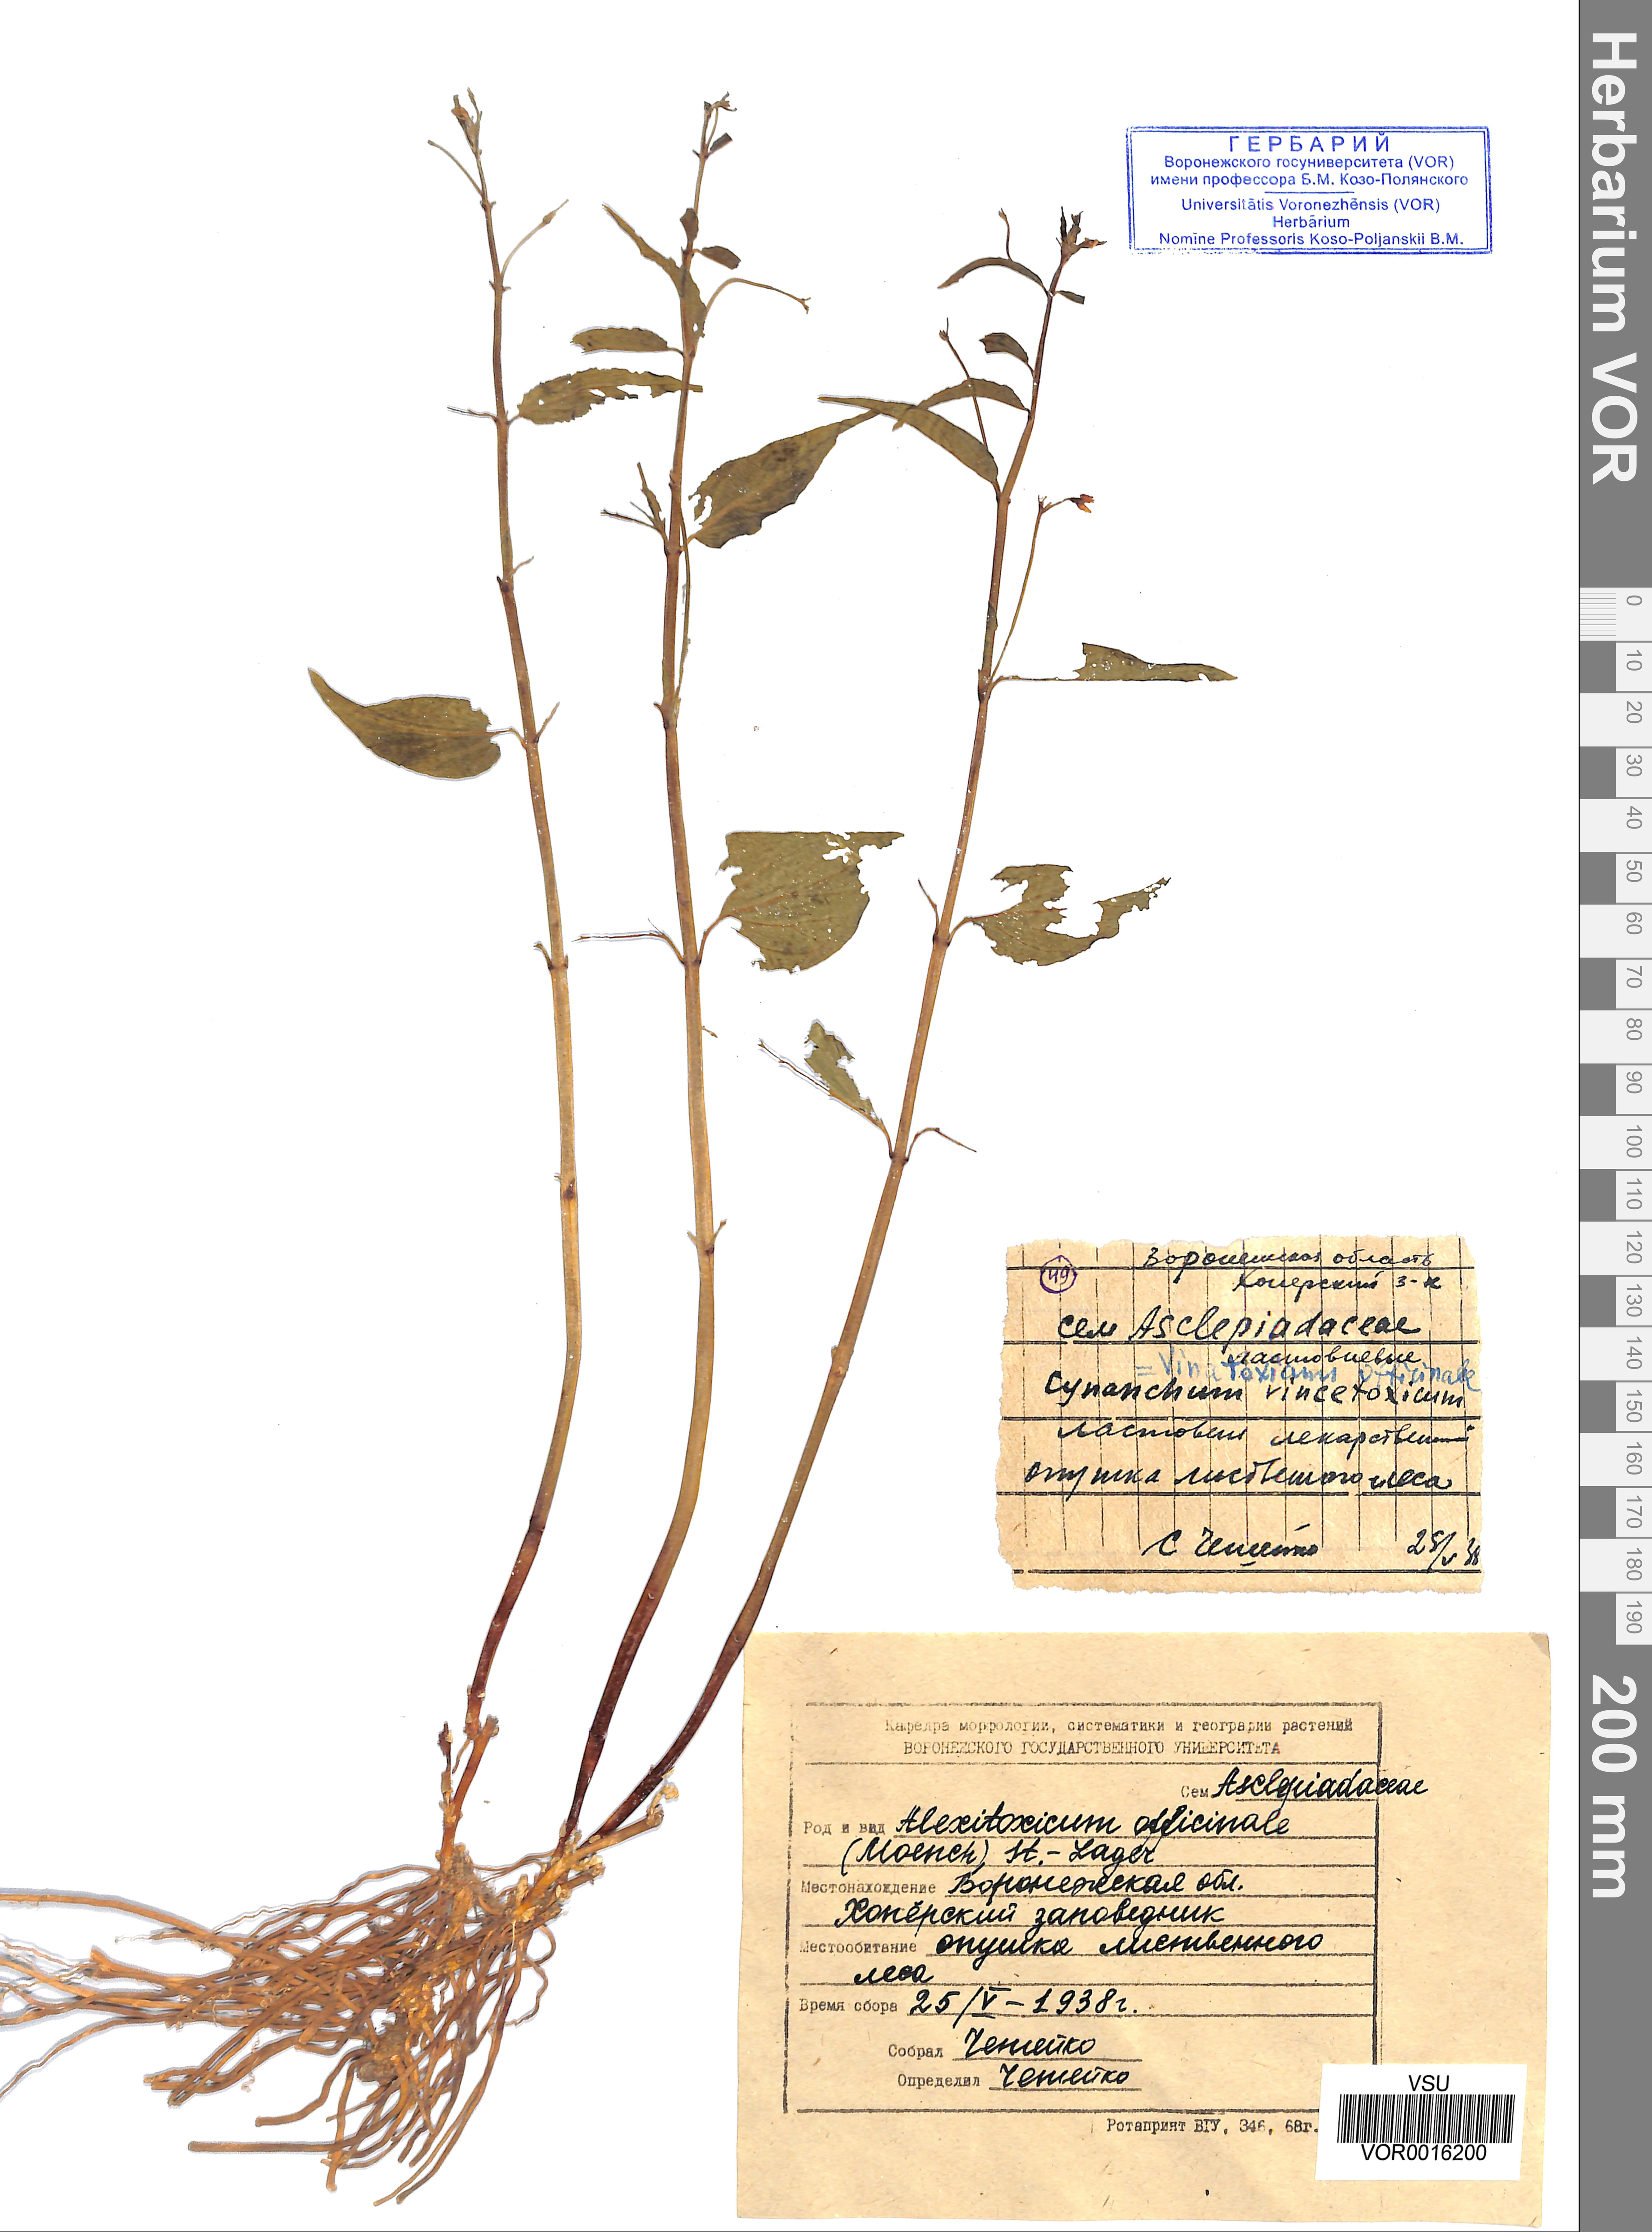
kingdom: Plantae
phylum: Tracheophyta
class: Magnoliopsida
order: Gentianales
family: Apocynaceae
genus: Vincetoxicum
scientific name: Vincetoxicum hirundinaria
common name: White swallowwort
